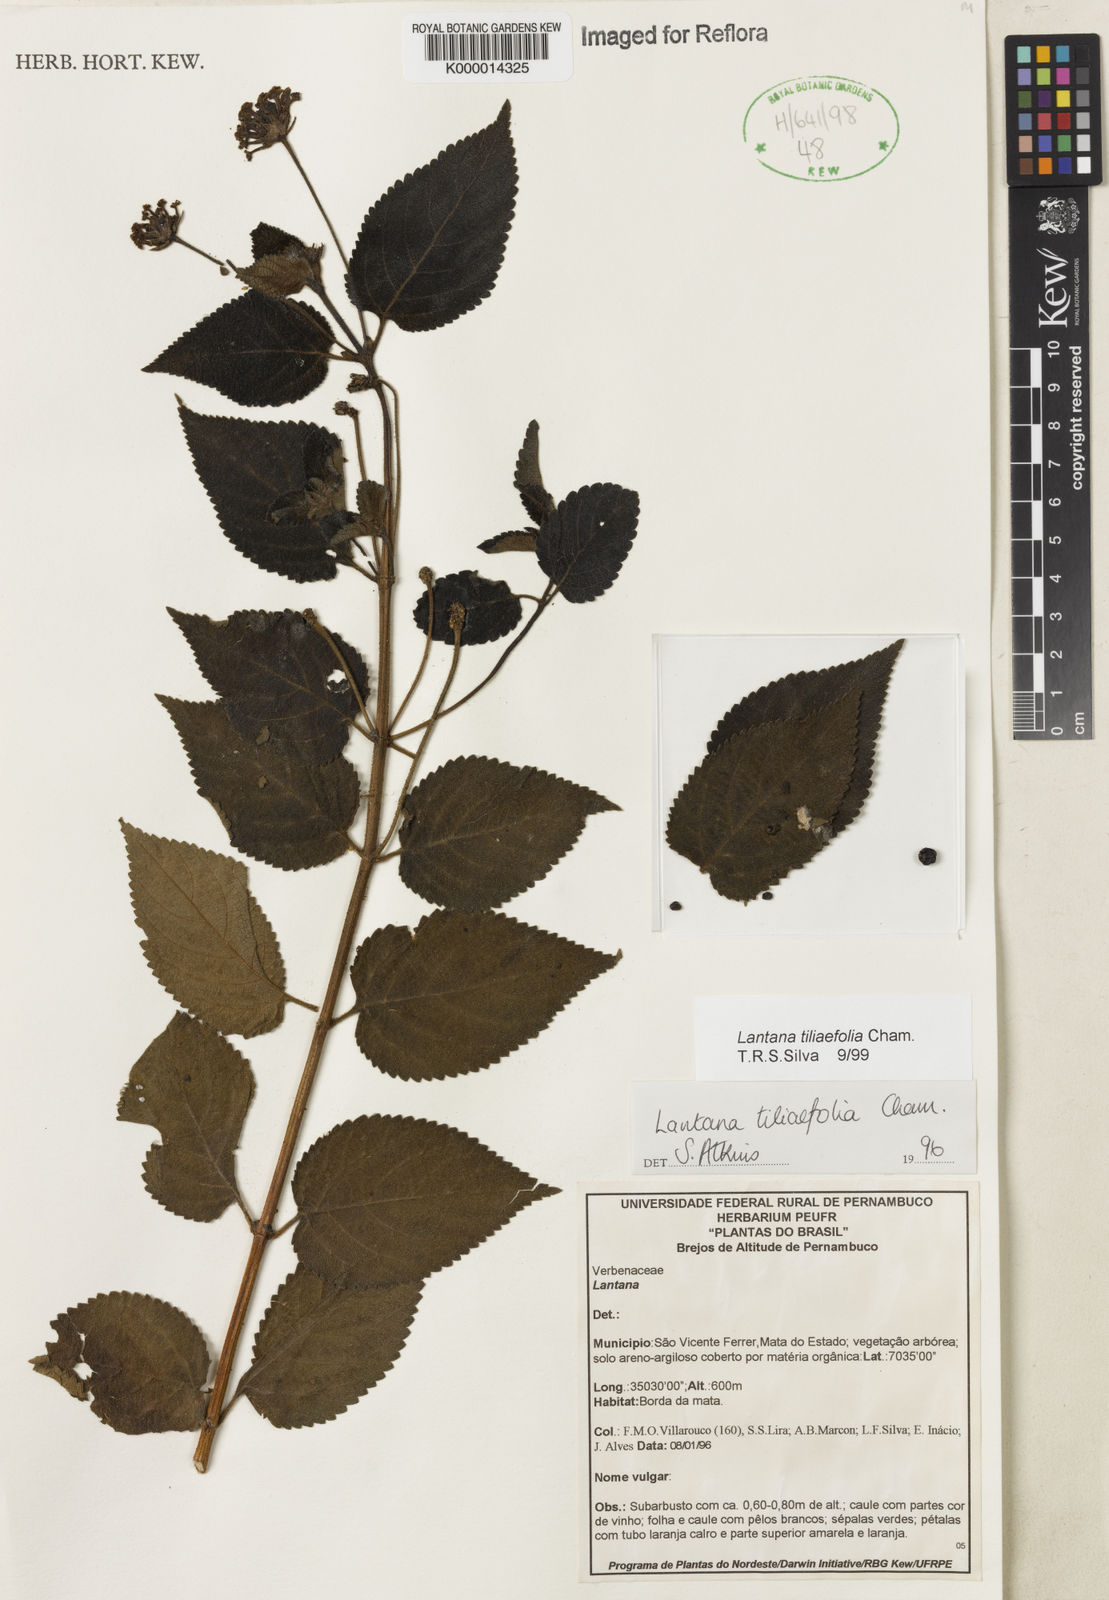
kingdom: Plantae
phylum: Tracheophyta
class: Magnoliopsida
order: Lamiales
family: Verbenaceae
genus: Lantana
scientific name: Lantana
